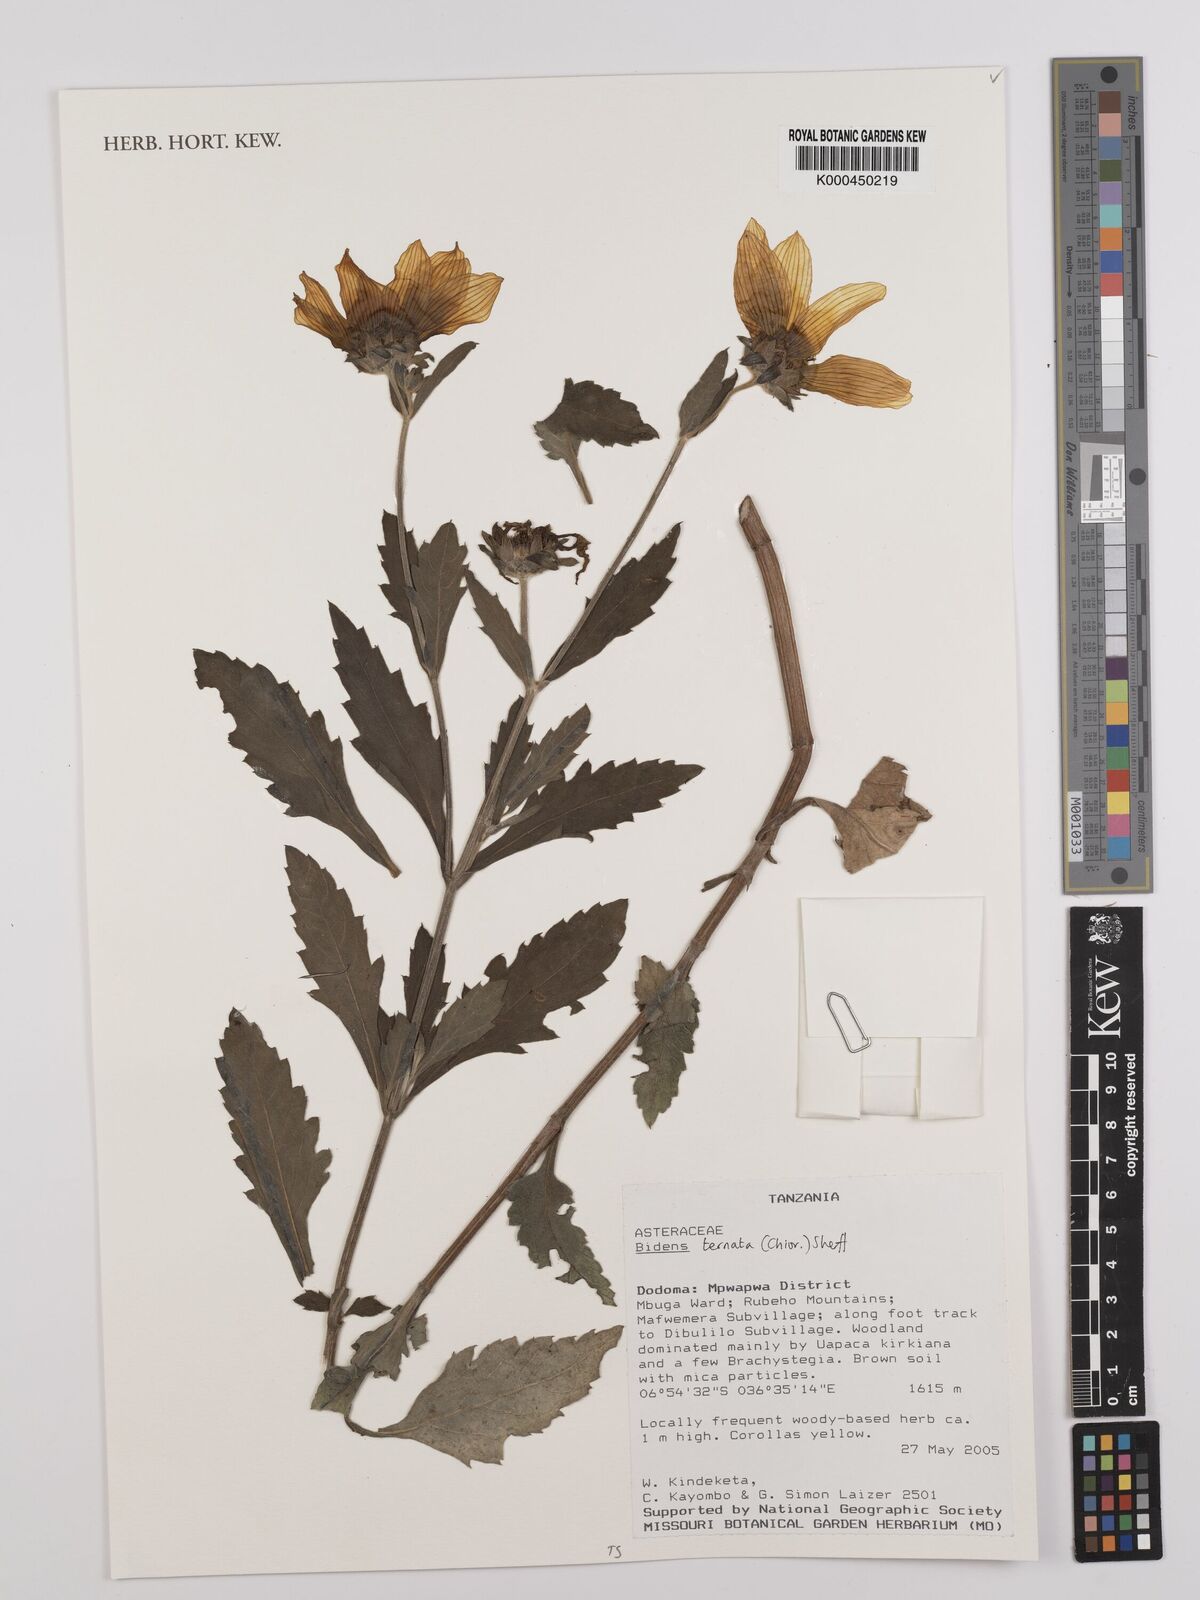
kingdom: Plantae
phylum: Tracheophyta
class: Magnoliopsida
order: Asterales
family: Asteraceae
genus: Bidens
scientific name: Bidens ternata
